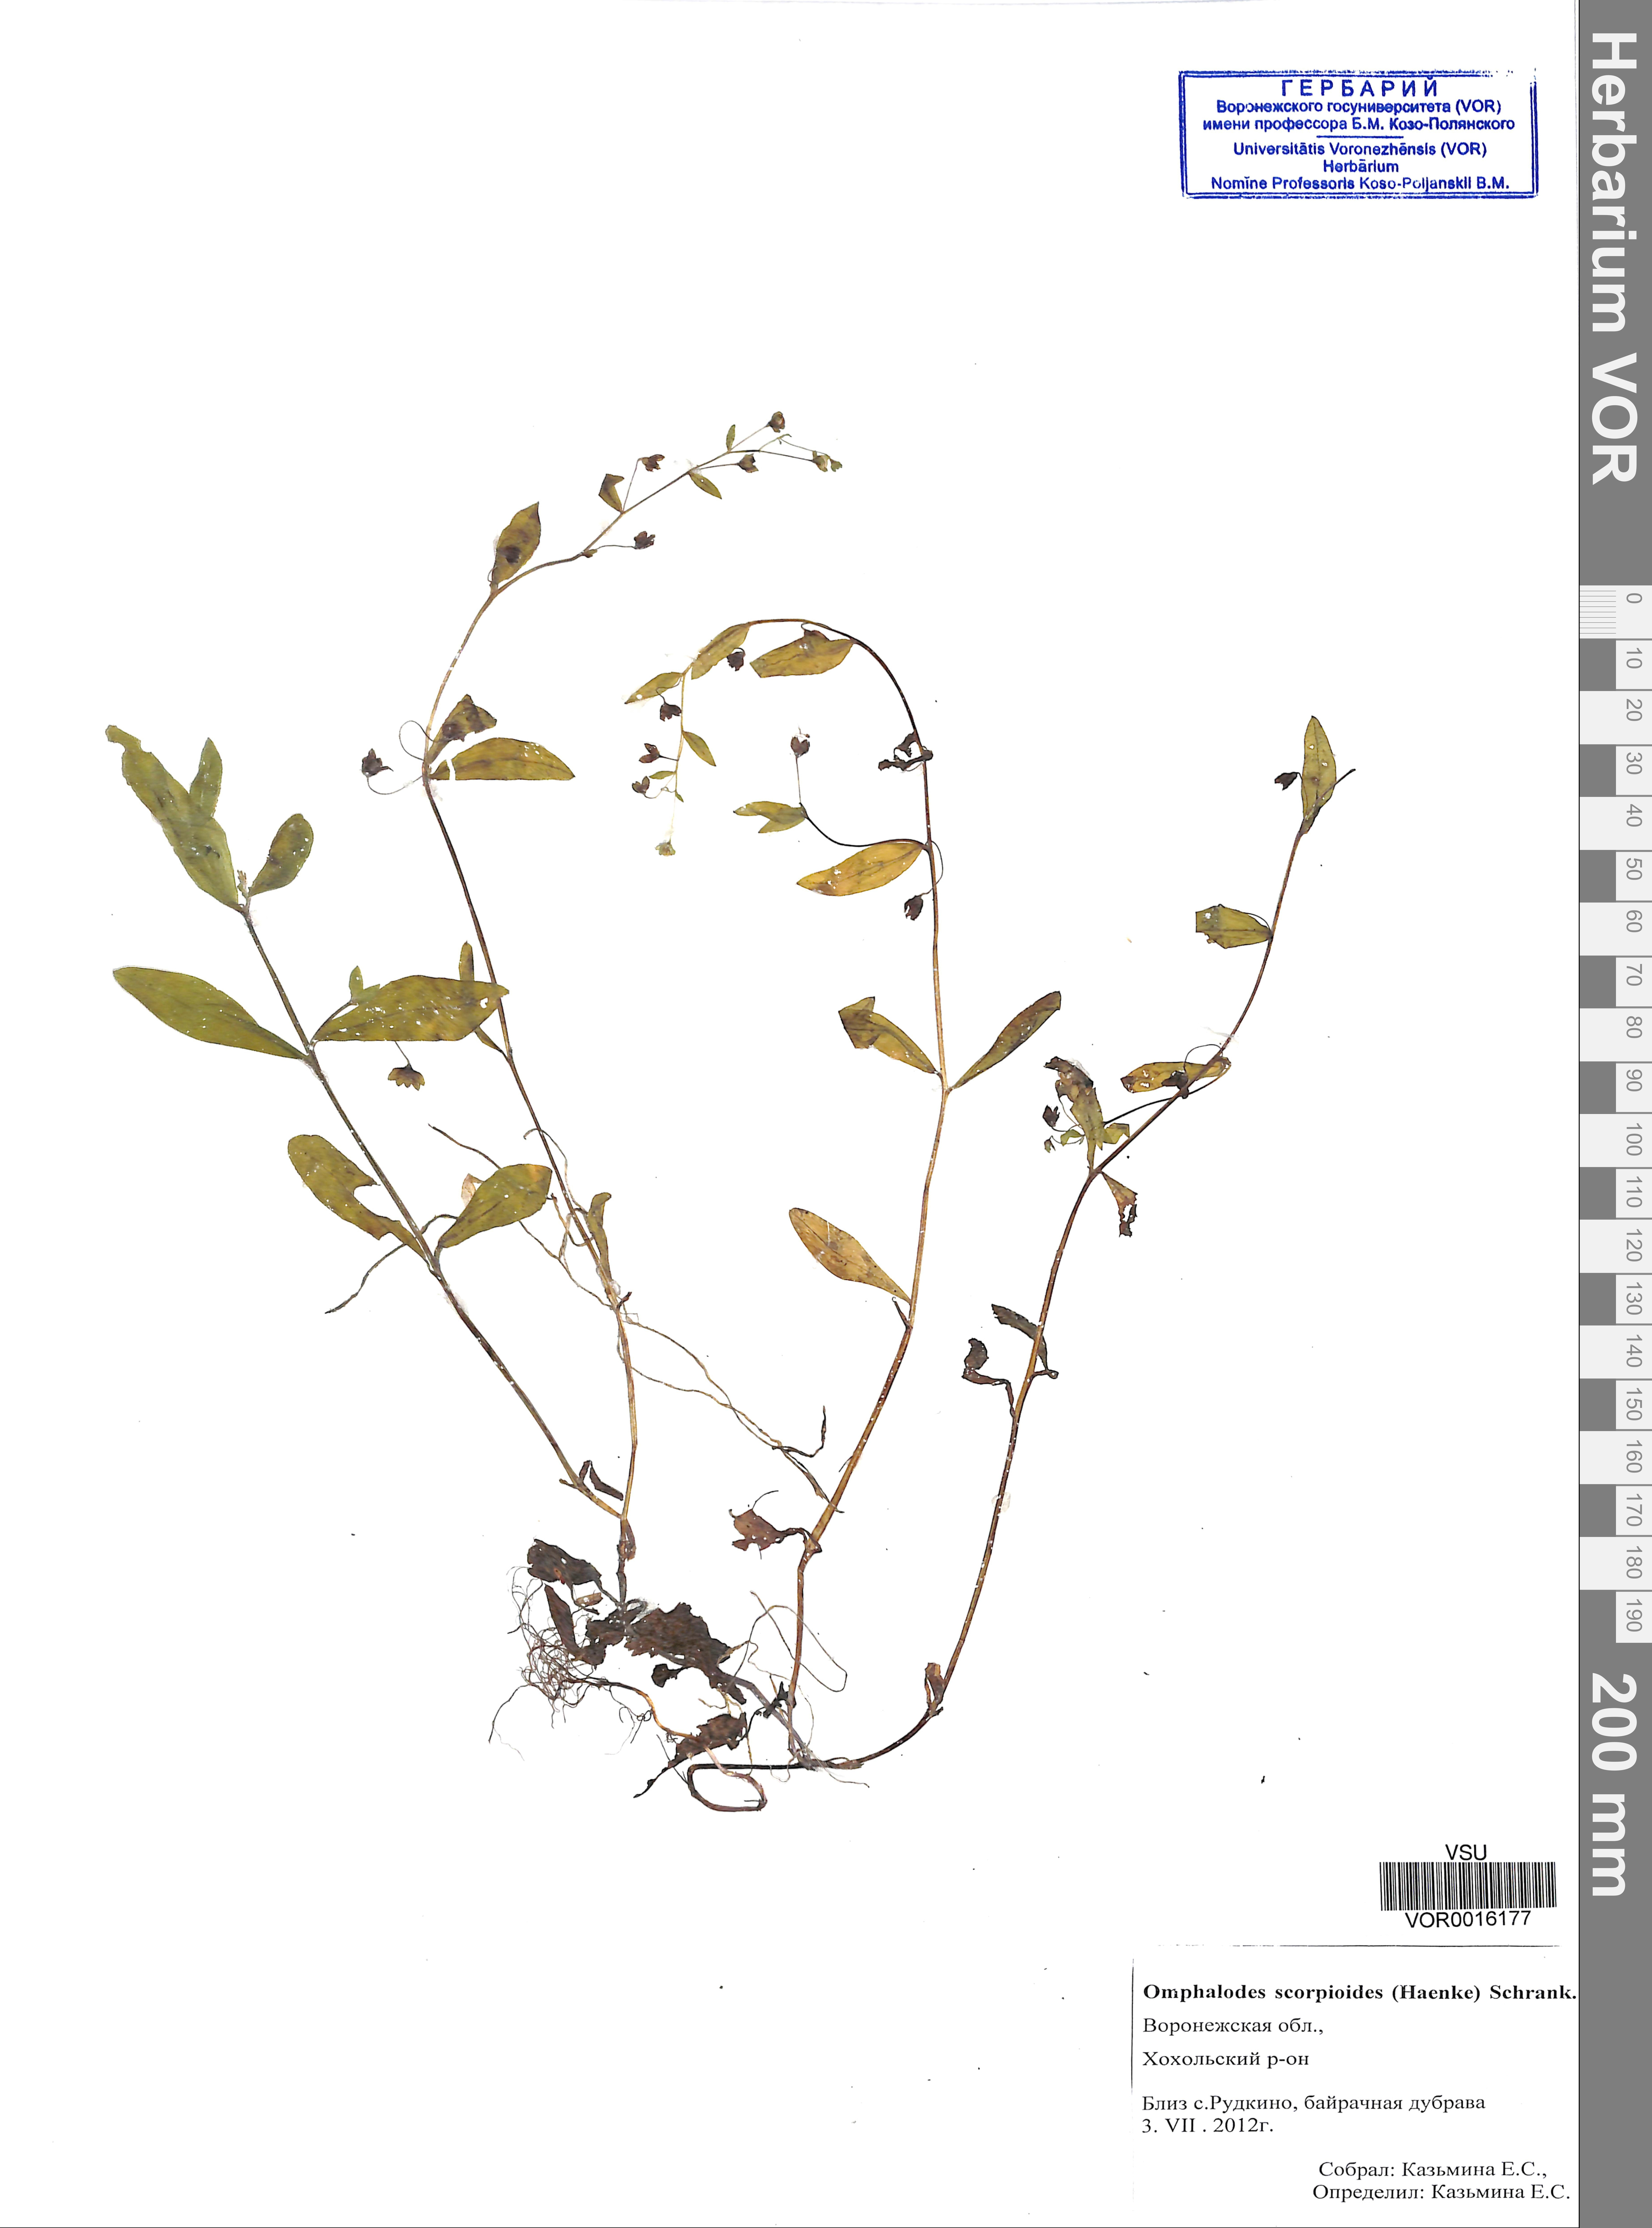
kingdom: Plantae
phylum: Tracheophyta
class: Magnoliopsida
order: Boraginales
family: Boraginaceae
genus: Memoremea
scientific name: Memoremea scorpioides
